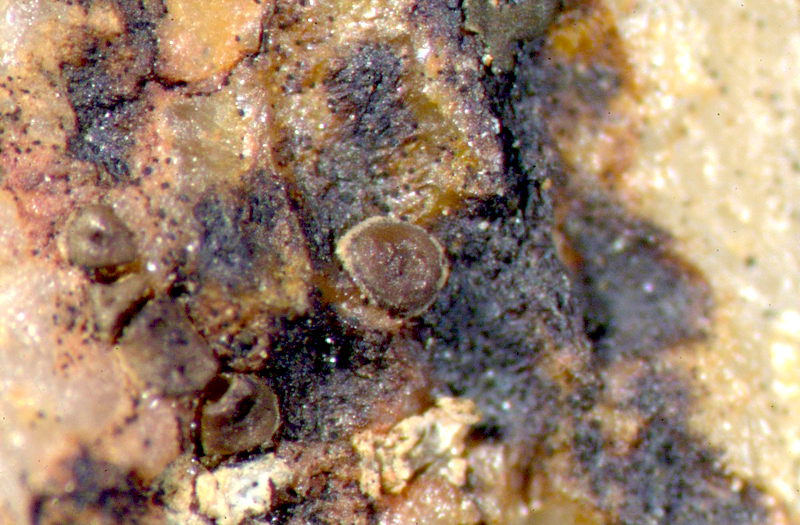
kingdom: Fungi
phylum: Ascomycota
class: Lecanoromycetes
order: Caliciales
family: Physciaceae
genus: Physcia
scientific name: Physcia
